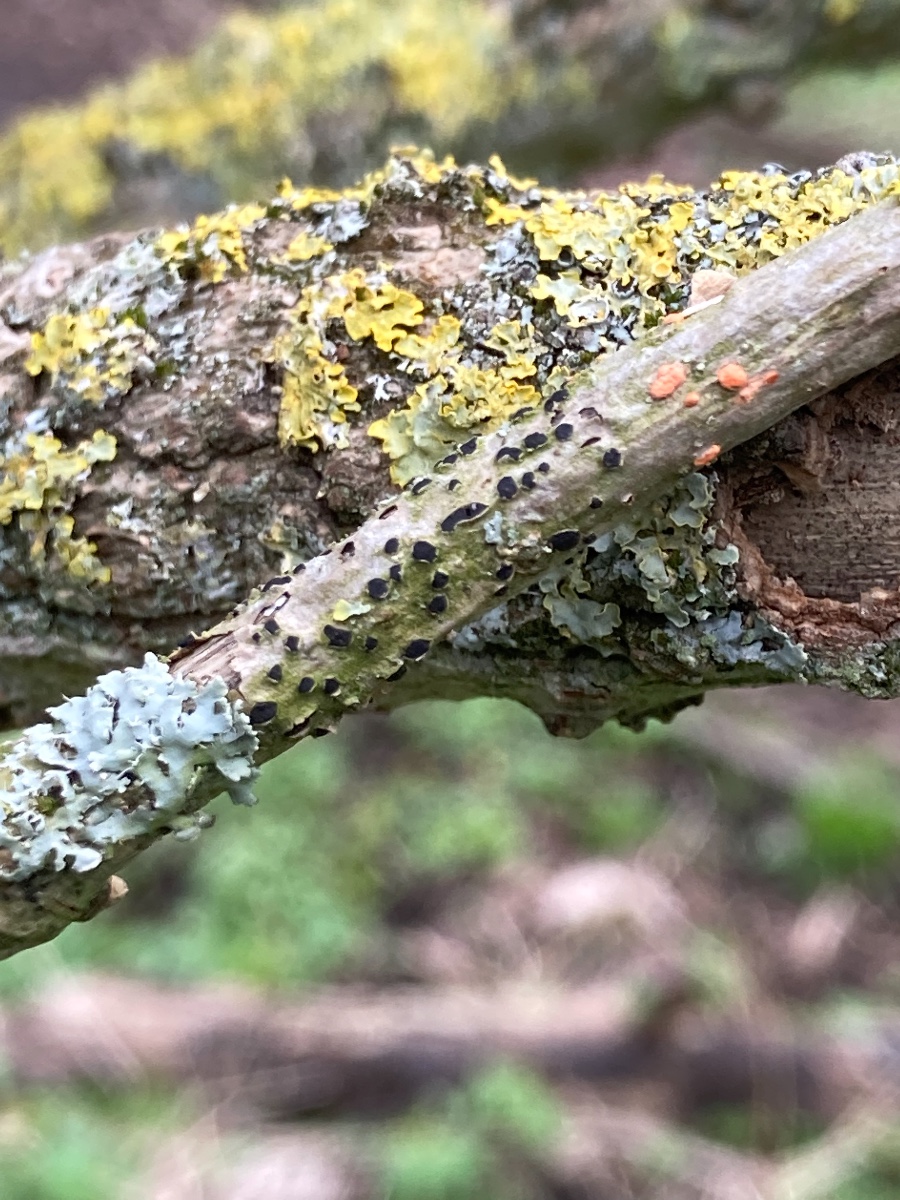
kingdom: Fungi
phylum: Ascomycota
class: Dothideomycetes
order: Dothideales
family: Dothideaceae
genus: Dothidea
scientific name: Dothidea sambuci
